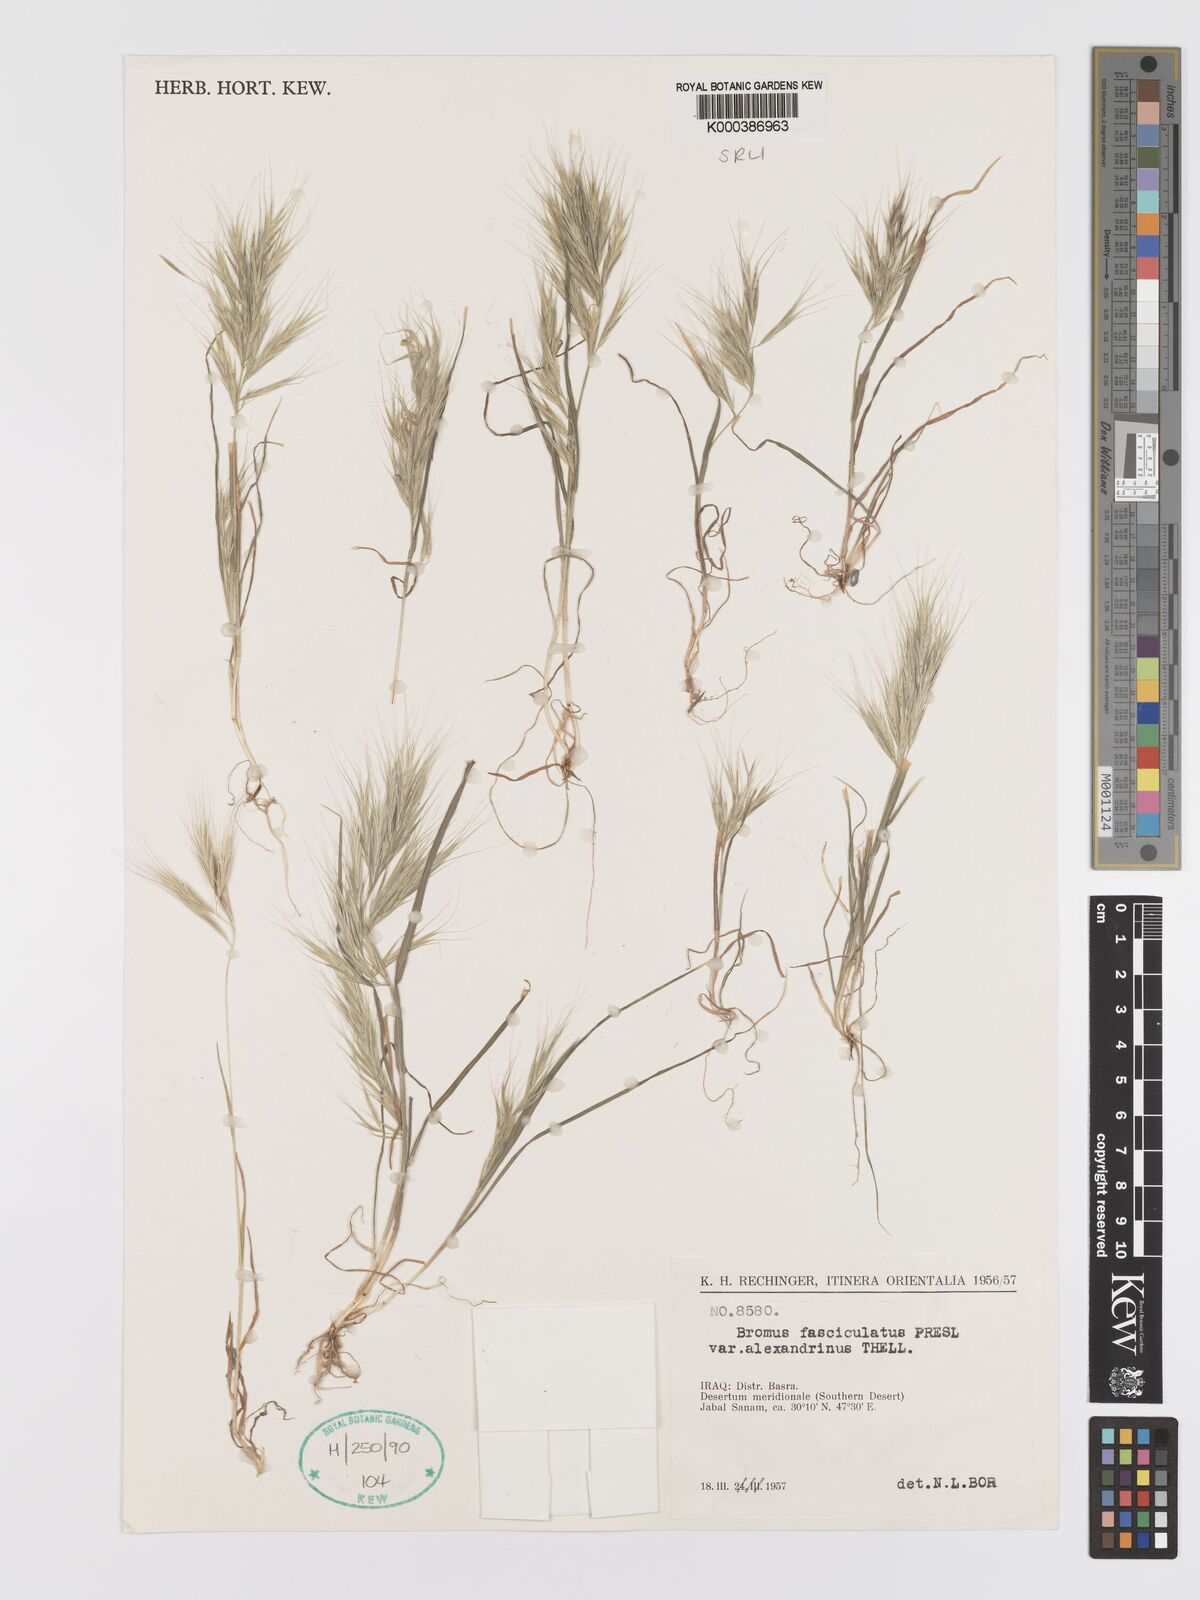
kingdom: Plantae
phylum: Tracheophyta
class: Liliopsida
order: Poales
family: Poaceae
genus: Bromus
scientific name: Bromus fasciculatus
